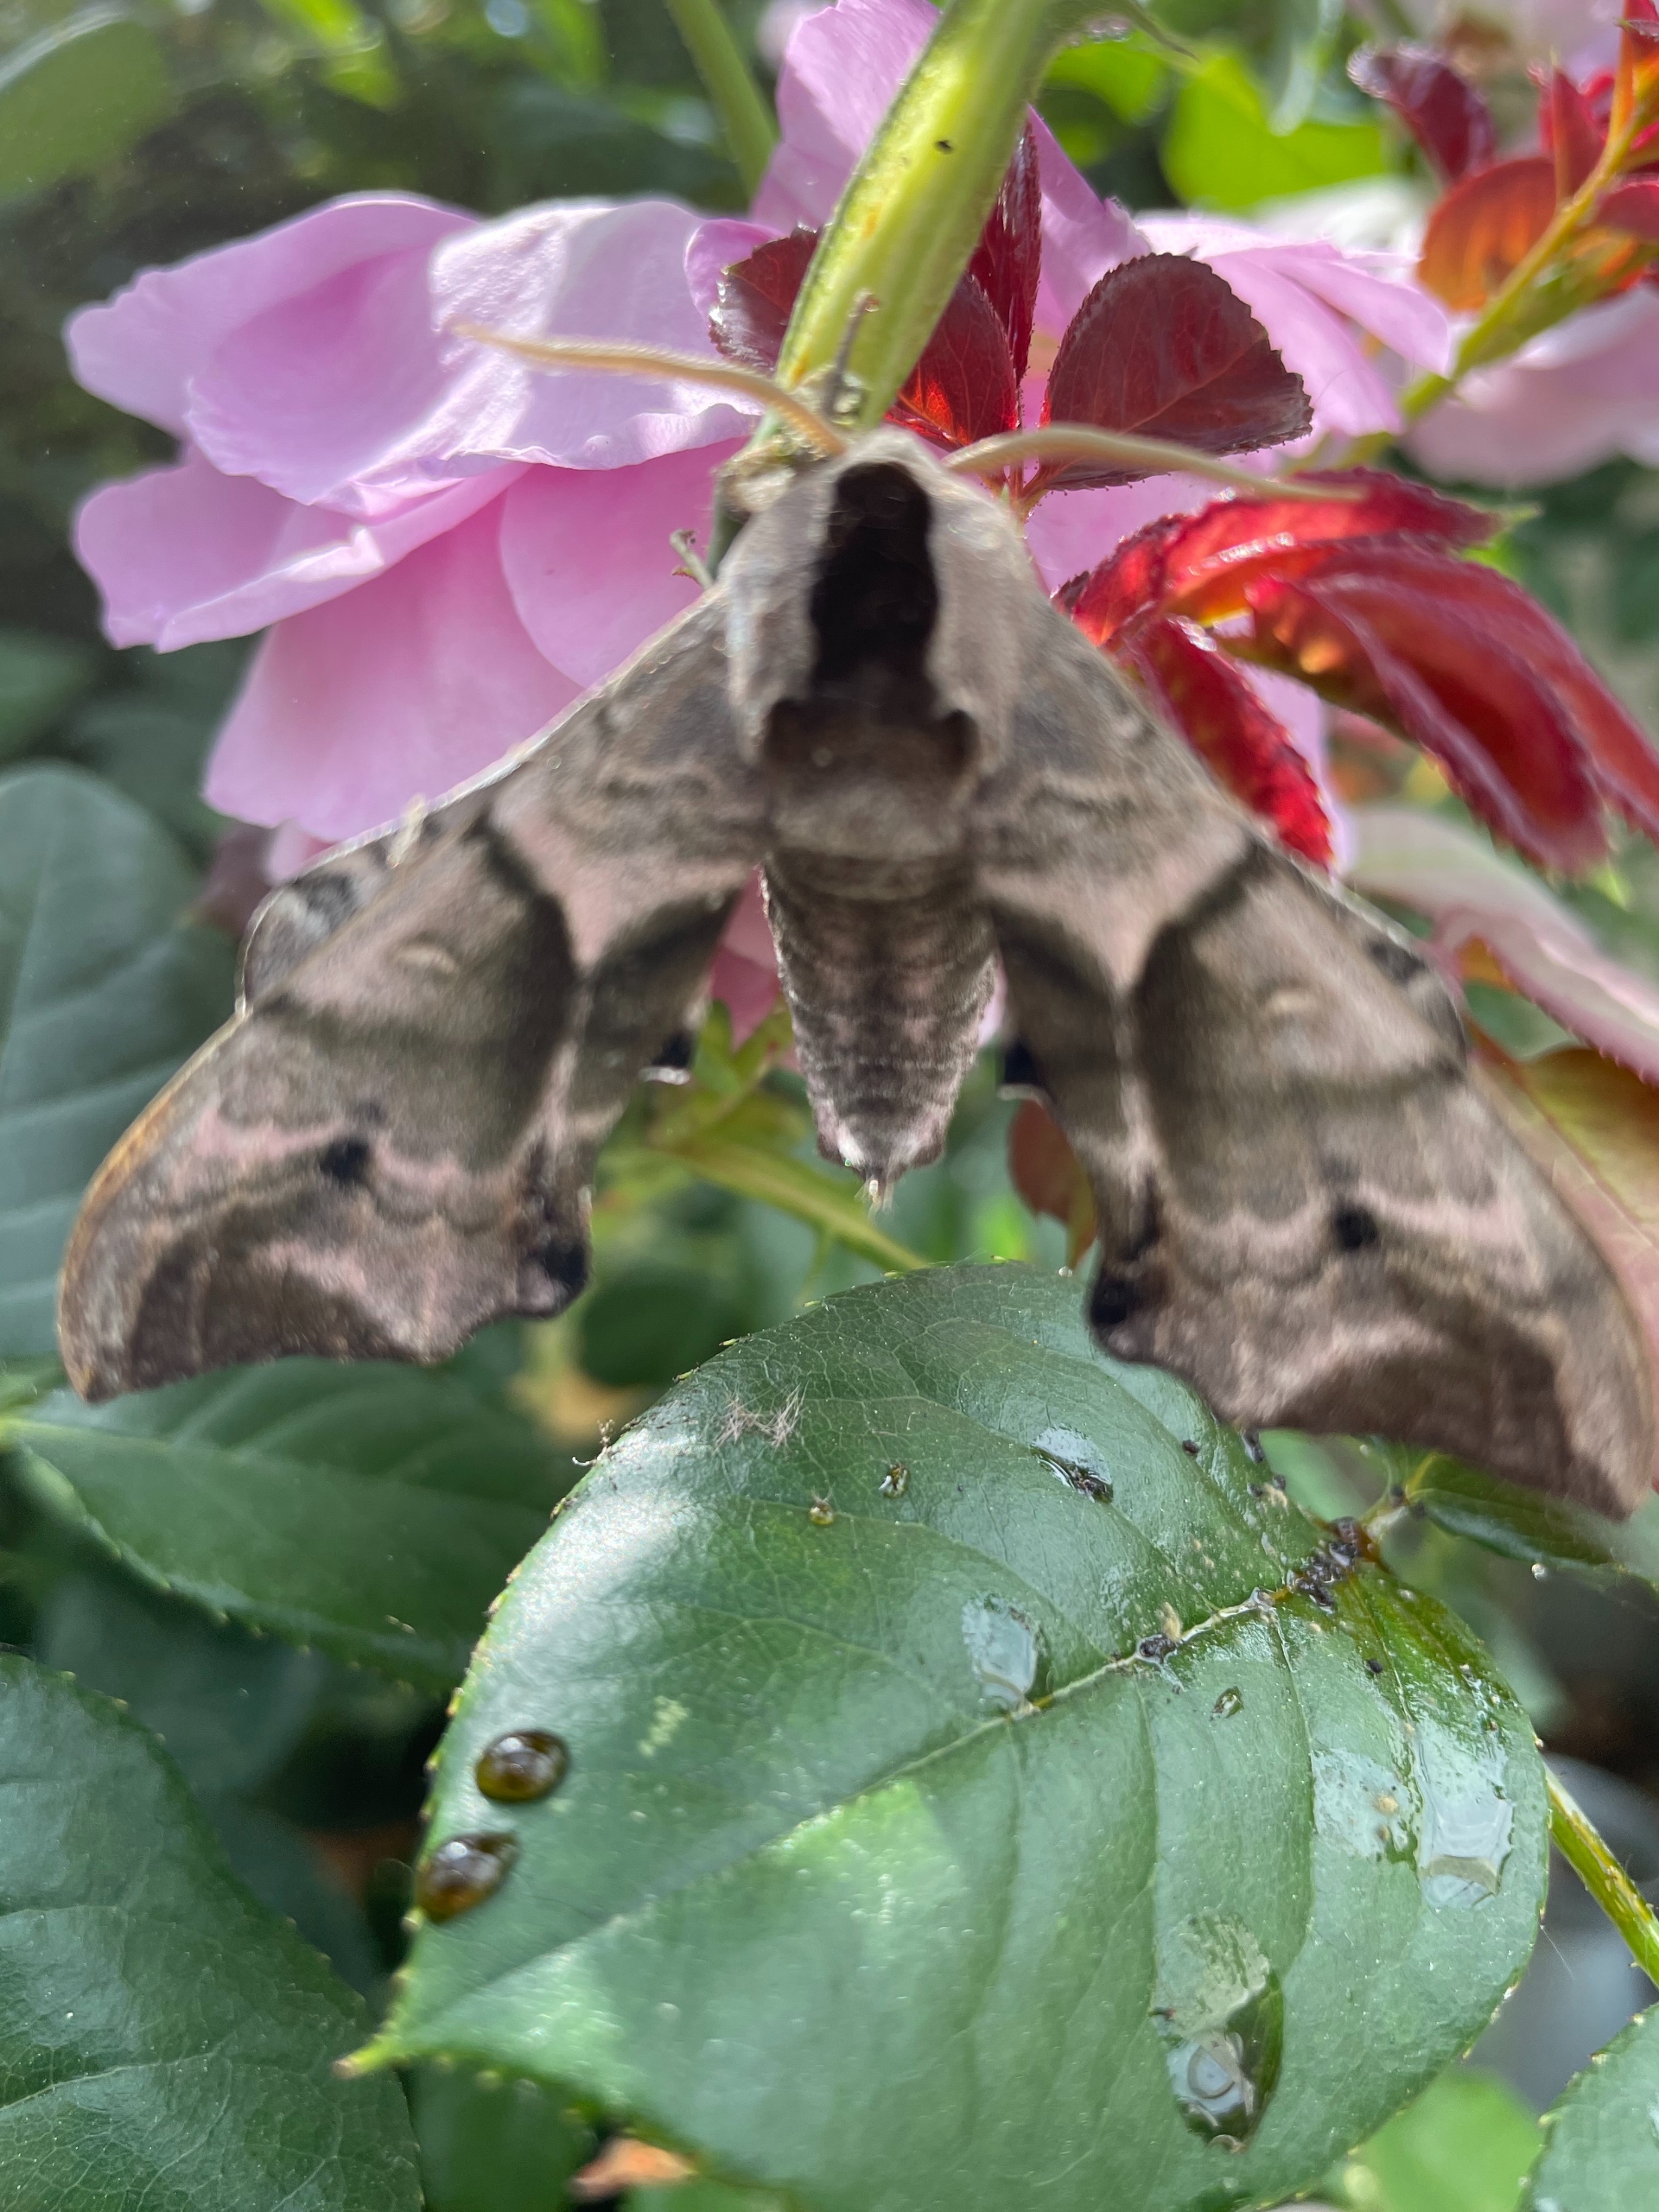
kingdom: Animalia
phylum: Arthropoda
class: Insecta
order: Lepidoptera
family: Sphingidae
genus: Smerinthus
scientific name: Smerinthus ocellata
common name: Aftenpåfugleøje
